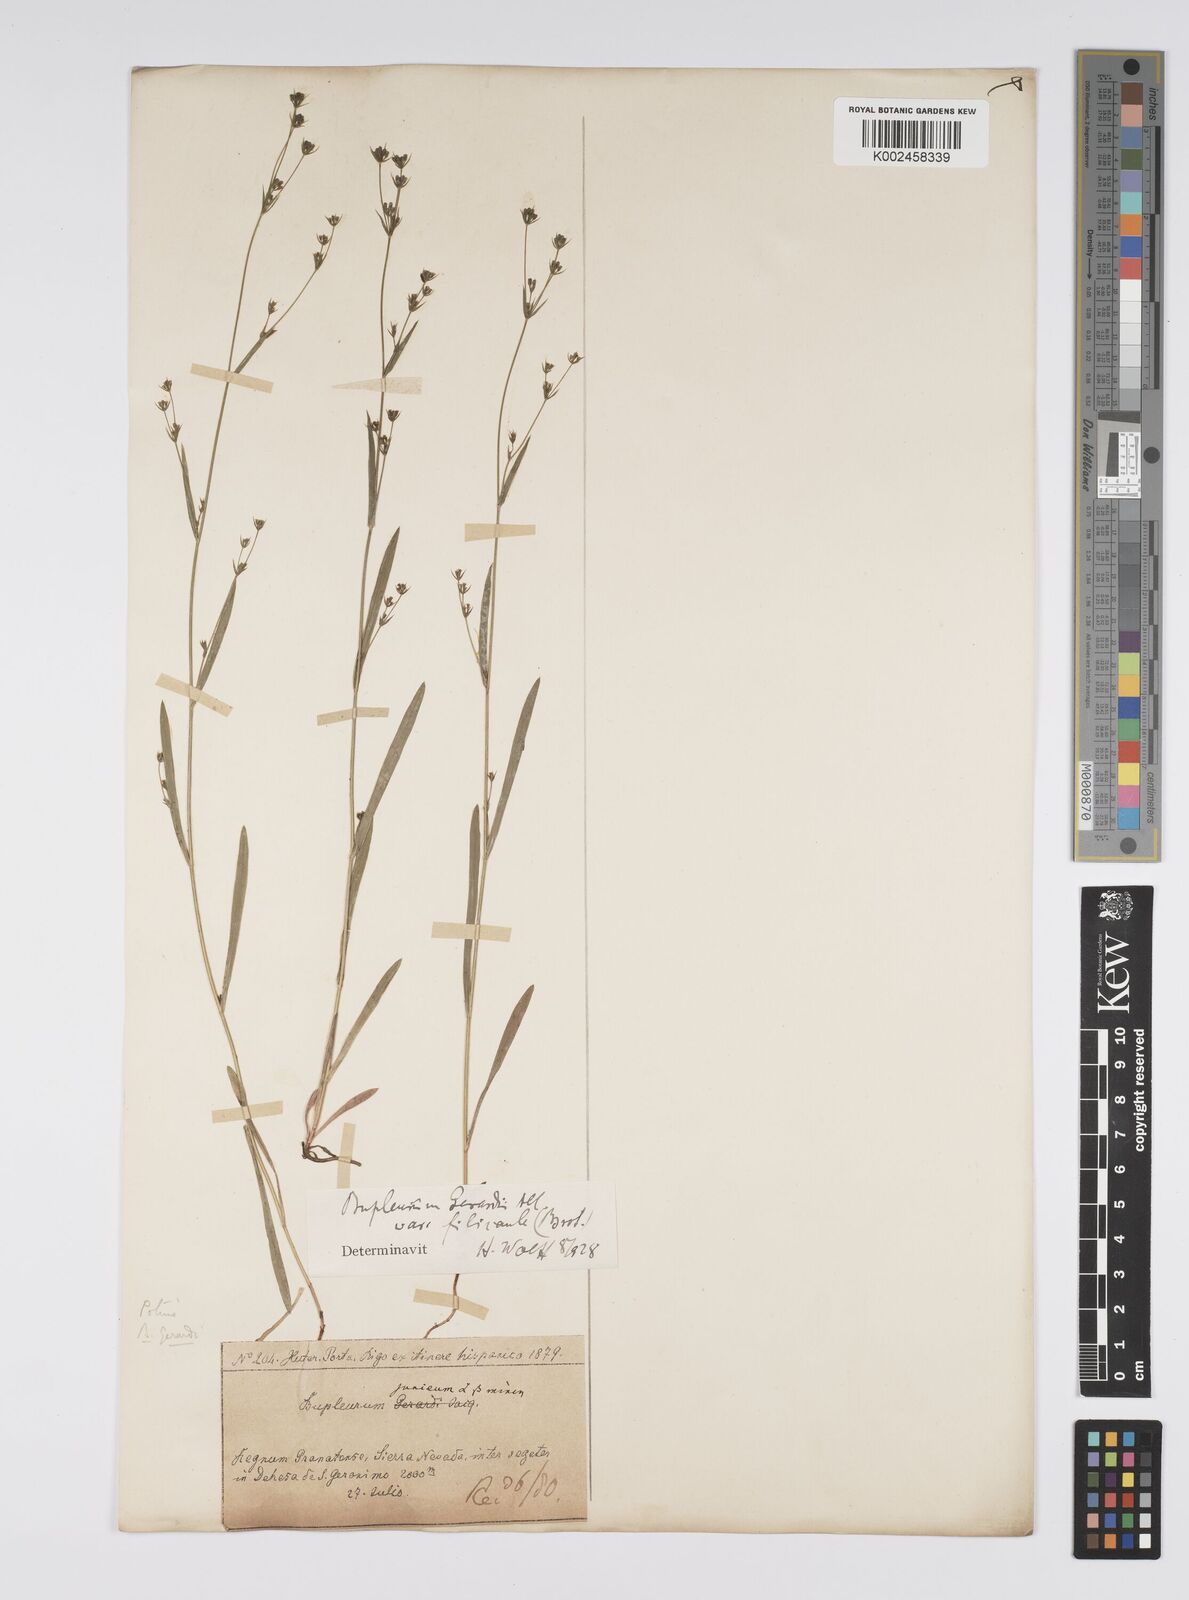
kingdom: Plantae
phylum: Tracheophyta
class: Magnoliopsida
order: Apiales
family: Apiaceae
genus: Bupleurum
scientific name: Bupleurum gerardi
